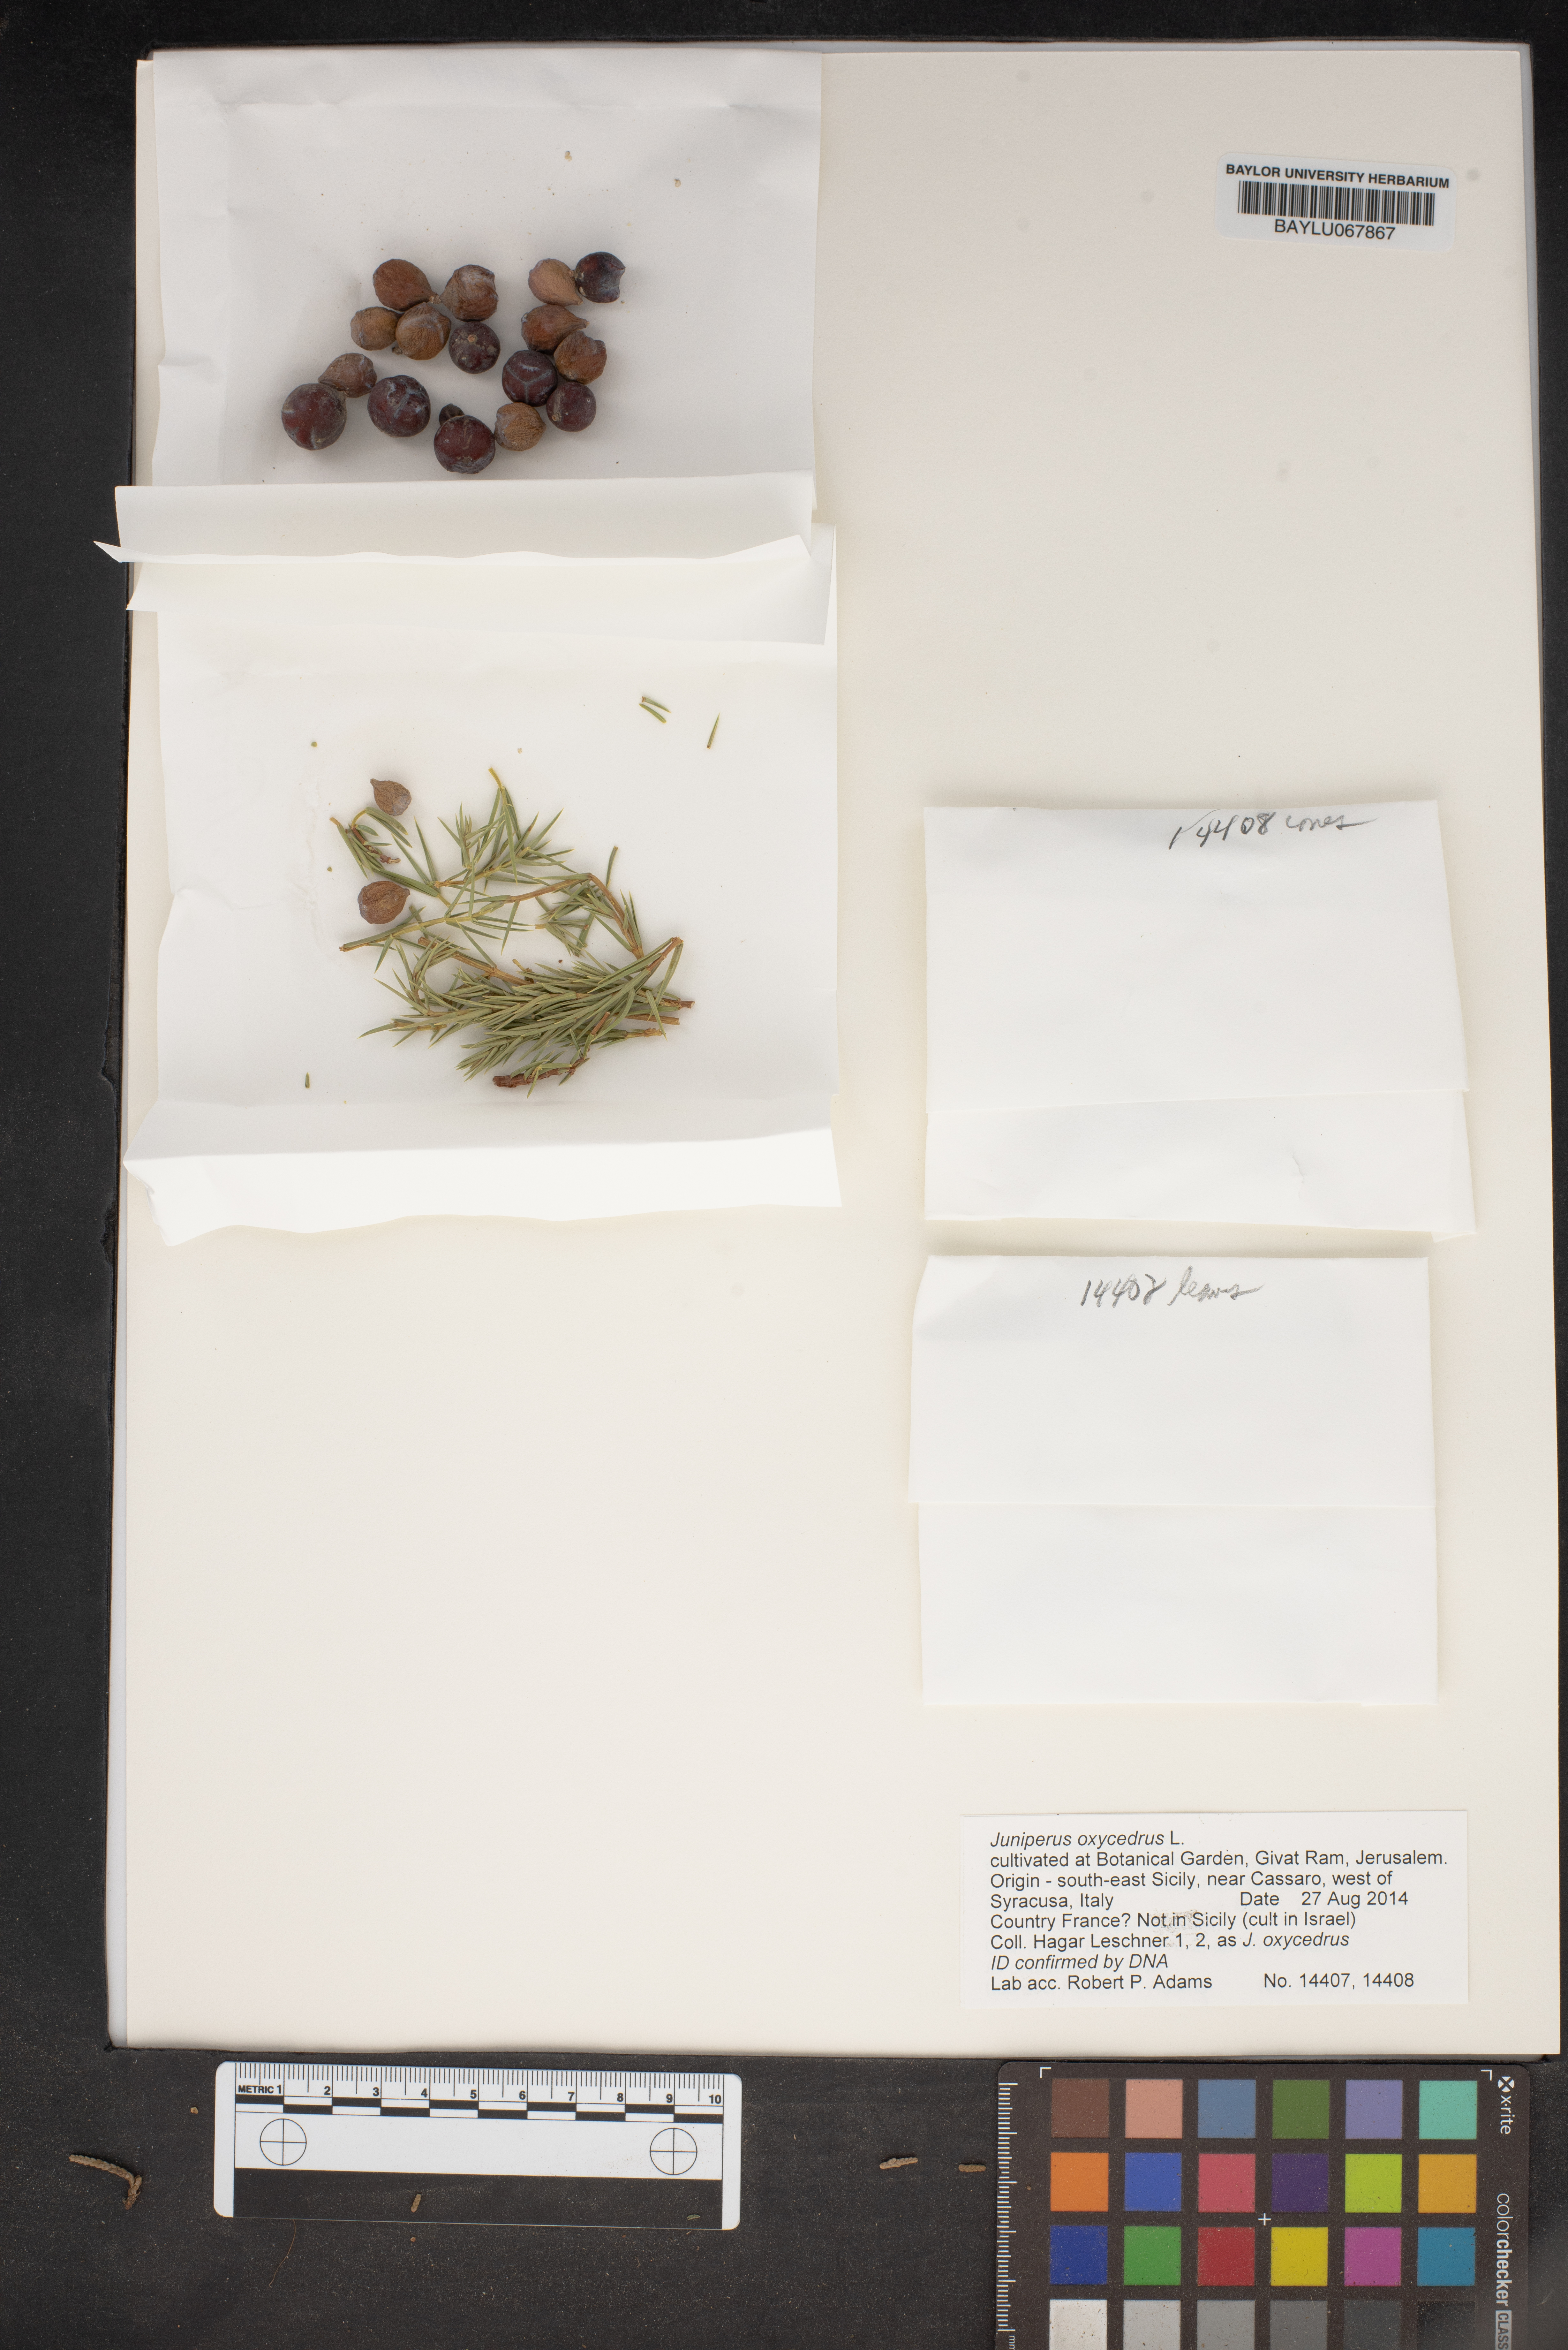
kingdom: Plantae
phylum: Tracheophyta
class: Pinopsida
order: Pinales
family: Cupressaceae
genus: Juniperus
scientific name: Juniperus oxycedrus
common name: Prickly juniper
